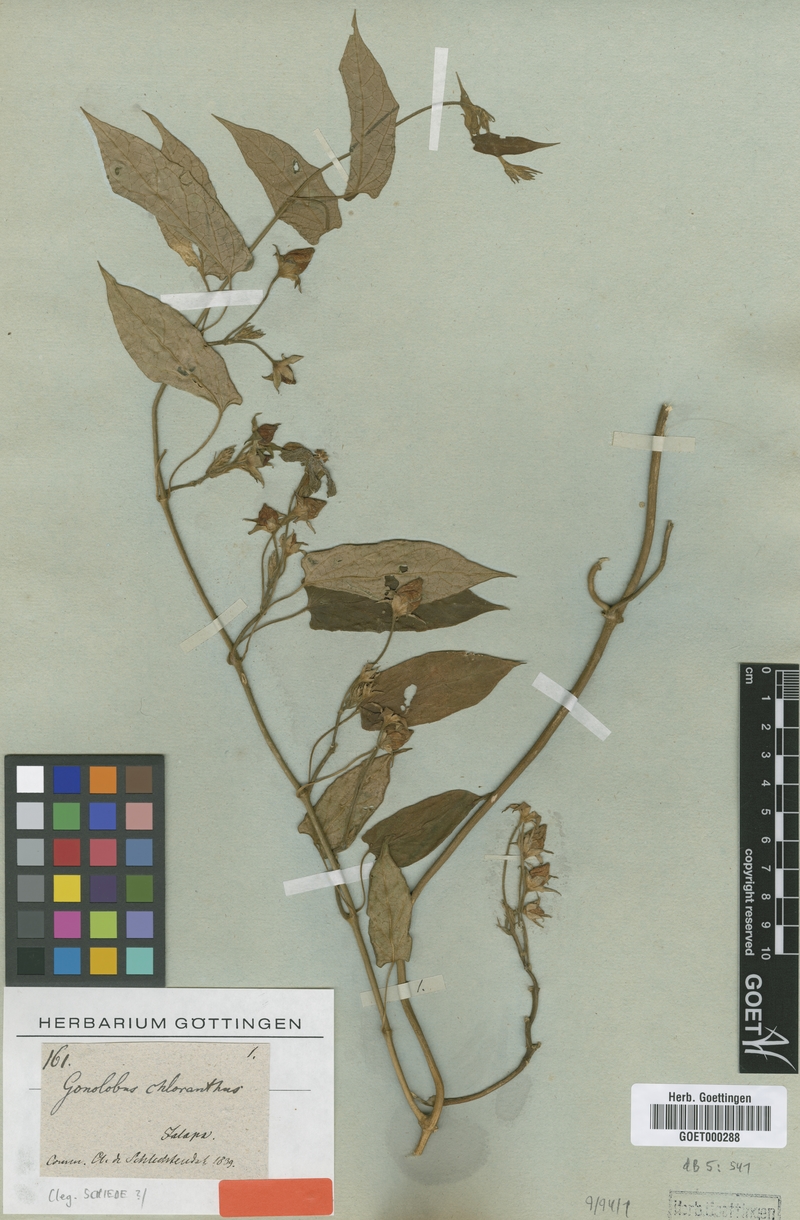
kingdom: Plantae
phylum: Tracheophyta
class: Magnoliopsida
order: Gentianales
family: Apocynaceae
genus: Gonolobus
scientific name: Gonolobus chloranthus
